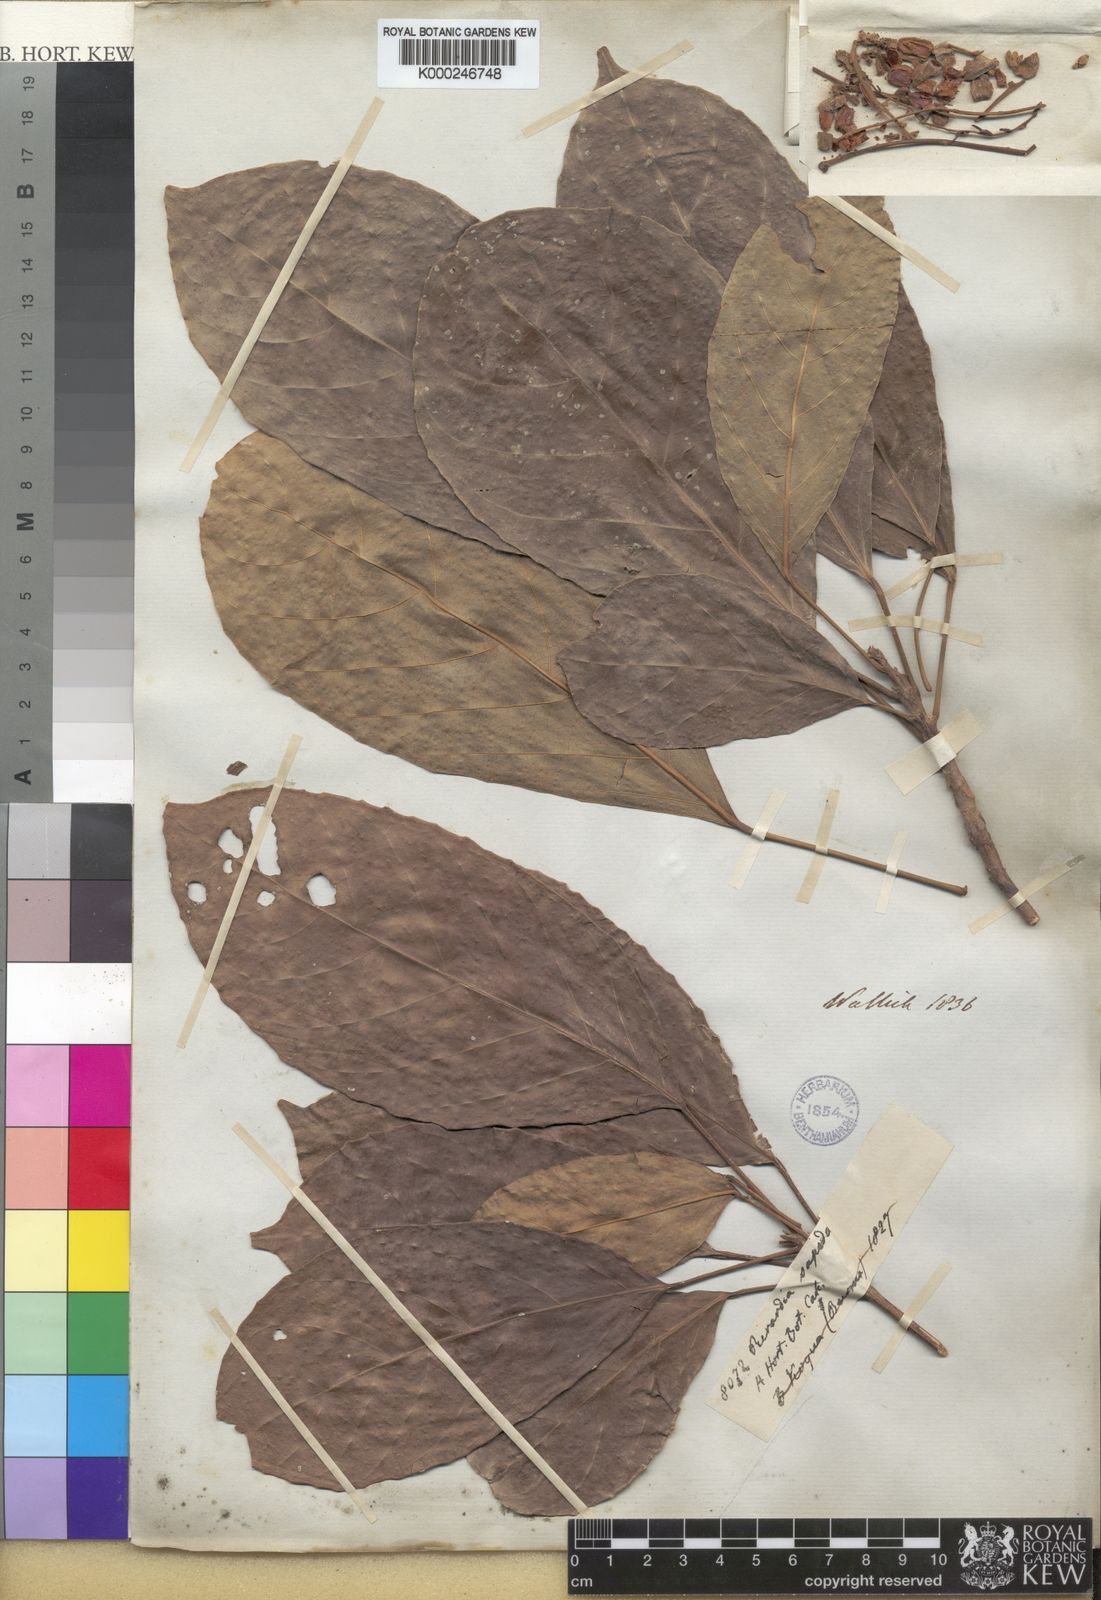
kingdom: Plantae
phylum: Tracheophyta
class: Magnoliopsida
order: Malpighiales
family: Phyllanthaceae
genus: Baccaurea
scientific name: Baccaurea ramiflora
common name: Baccaurea
